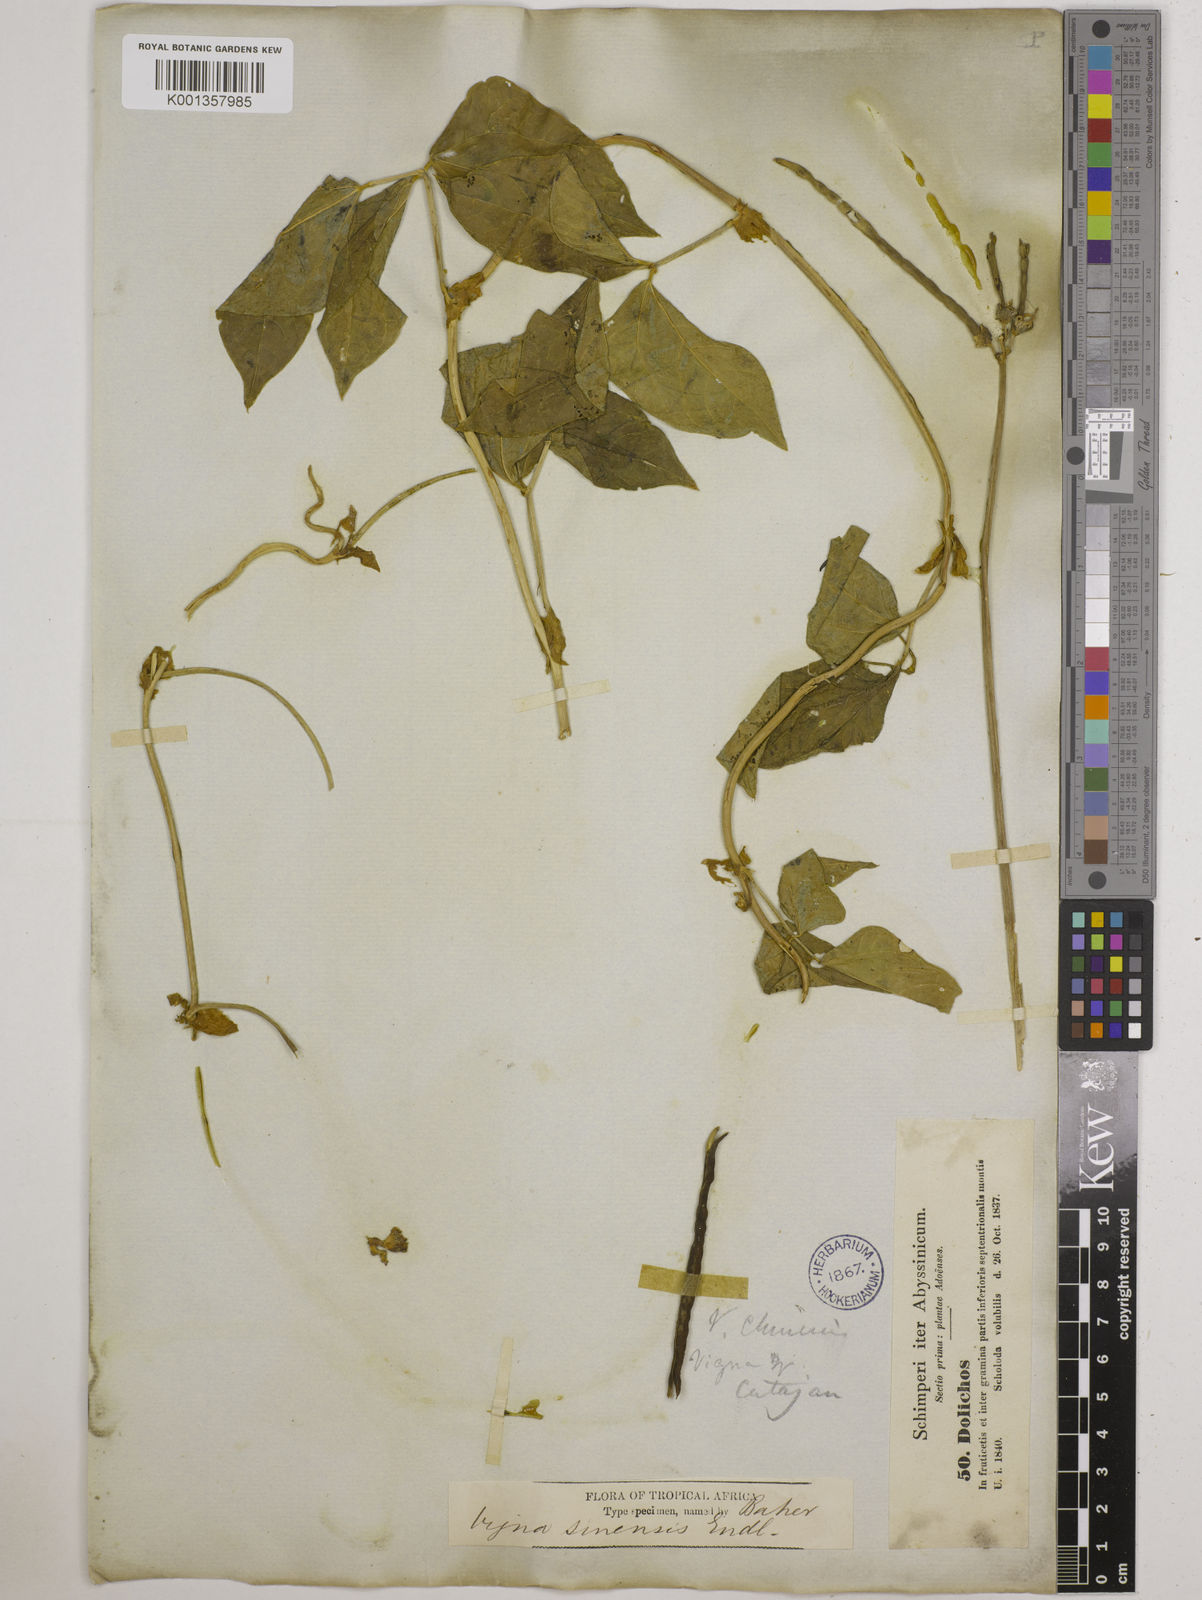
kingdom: Plantae
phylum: Tracheophyta
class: Magnoliopsida
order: Fabales
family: Fabaceae
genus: Vigna
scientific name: Vigna
